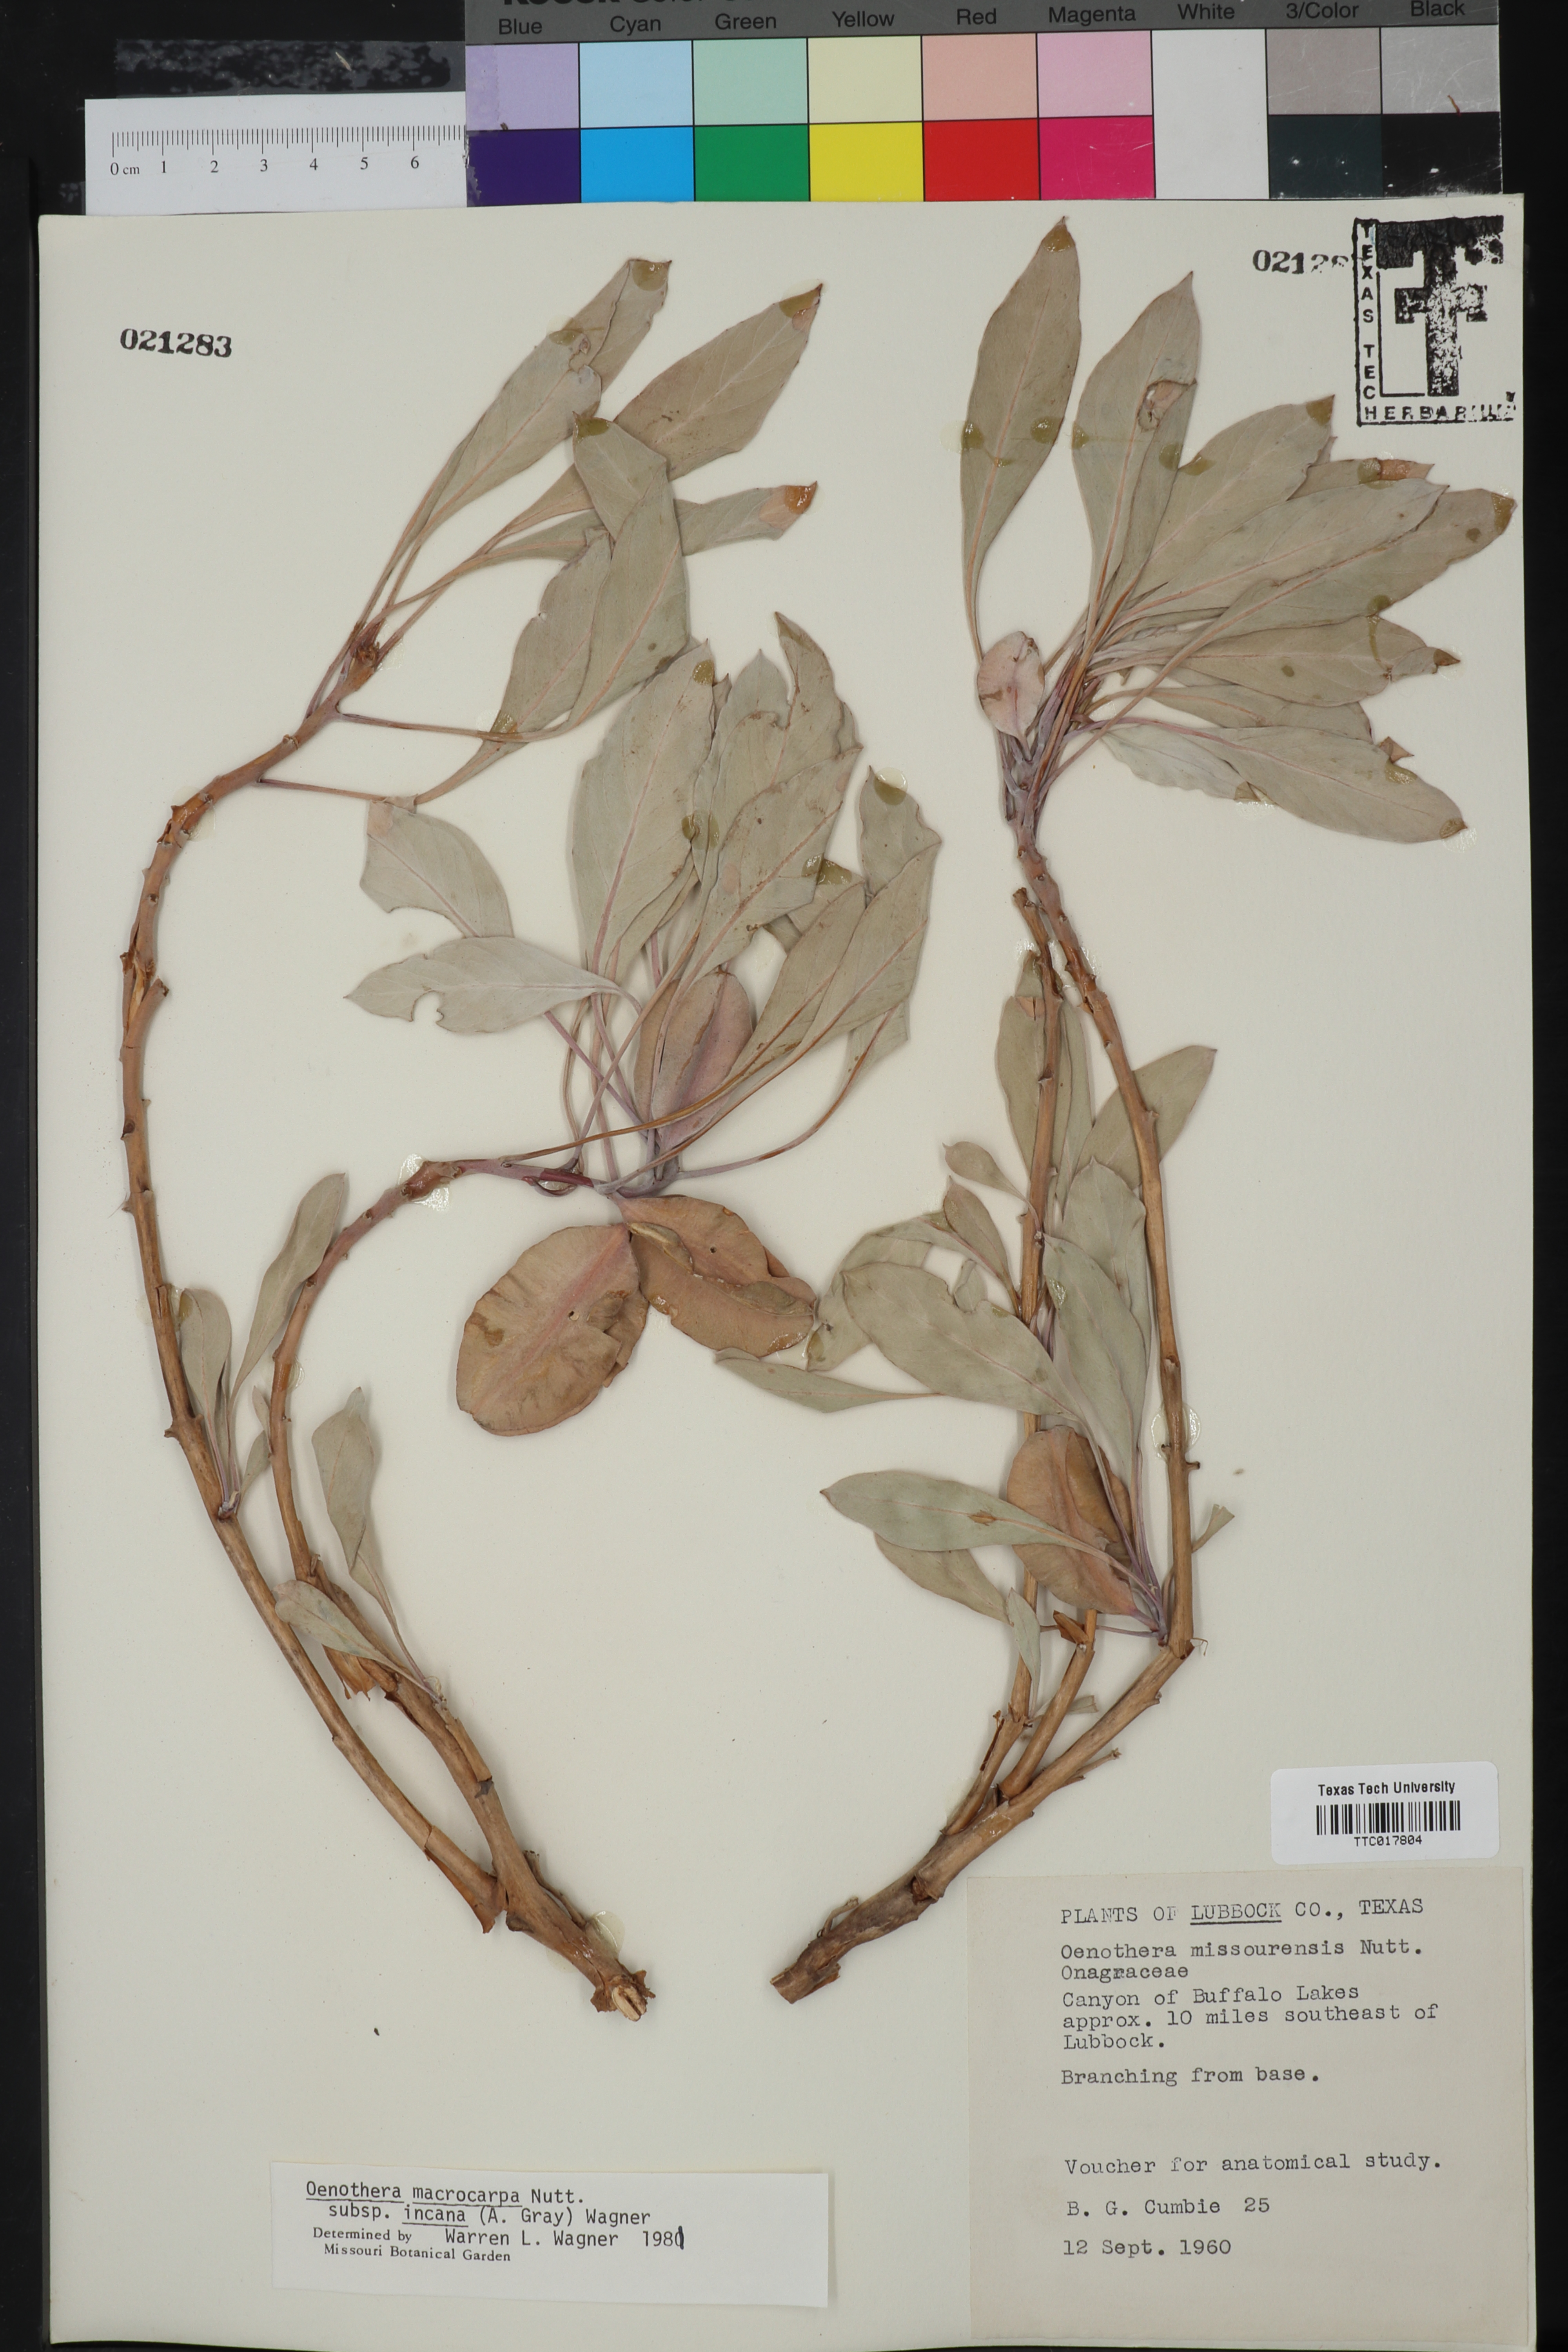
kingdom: Plantae
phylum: Tracheophyta
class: Magnoliopsida
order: Myrtales
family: Onagraceae
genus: Oenothera
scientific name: Oenothera macrocarpa
